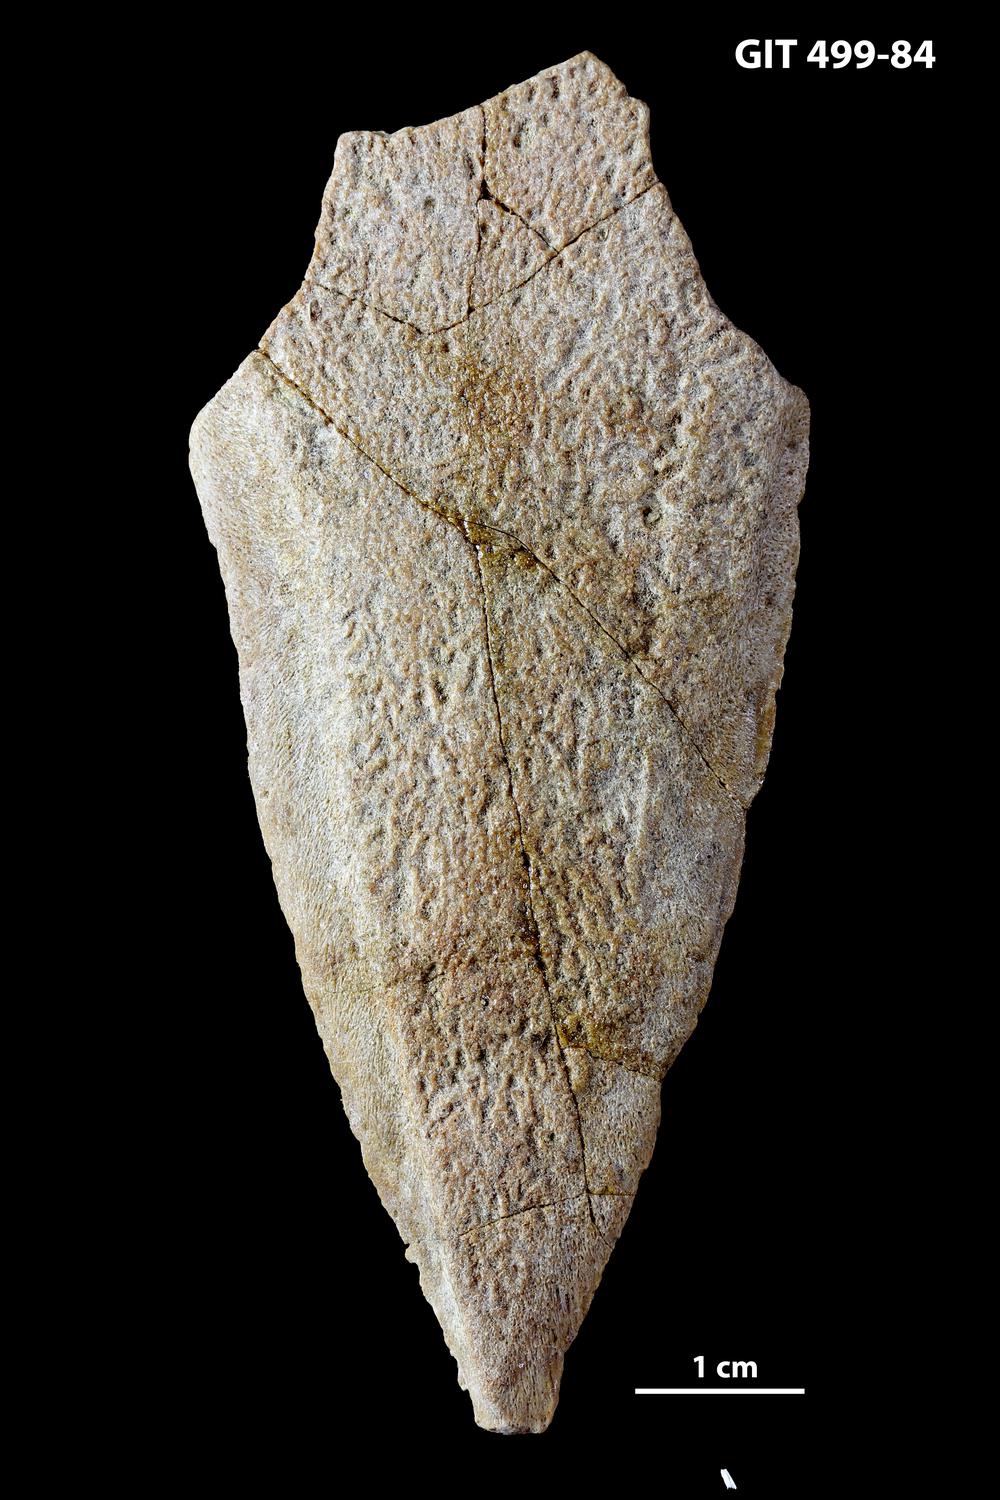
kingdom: Animalia
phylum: Chordata
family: Holoptychiidae
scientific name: Holoptychiidae
